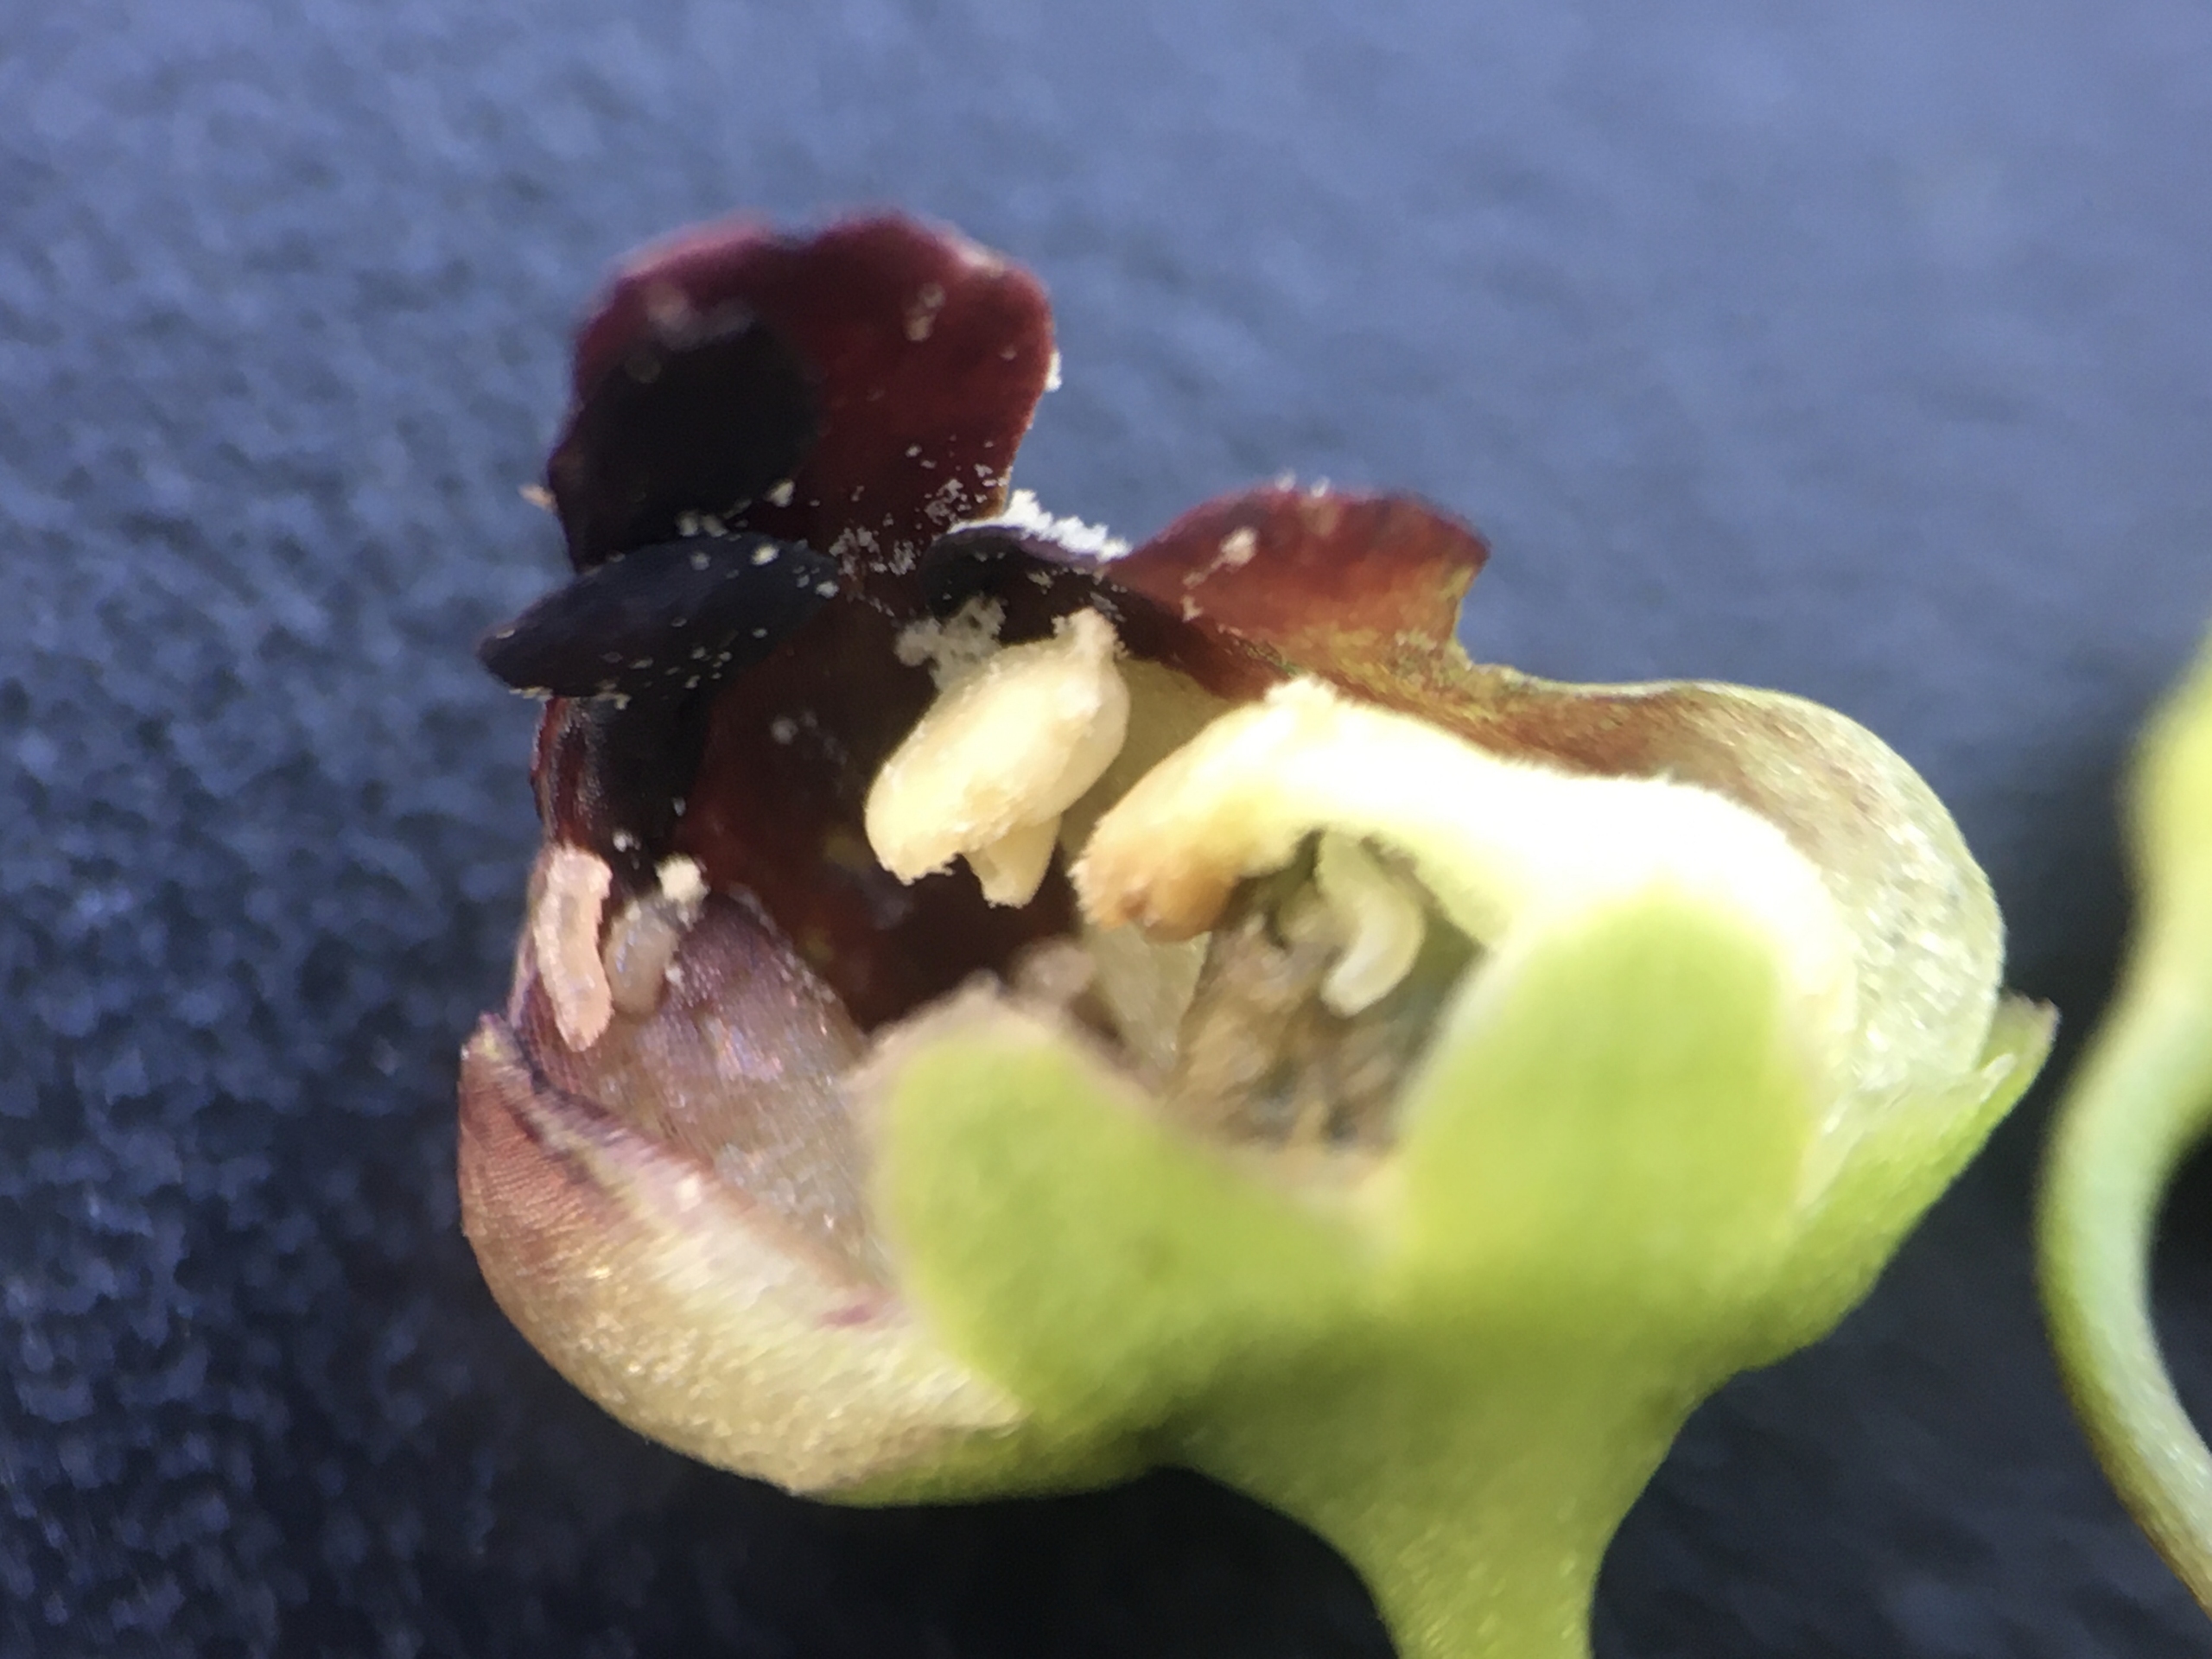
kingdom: Animalia
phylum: Arthropoda
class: Insecta
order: Diptera
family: Cecidomyiidae
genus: Contarinia
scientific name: Contarinia scrophulariae
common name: Brunrodsgalmyg
